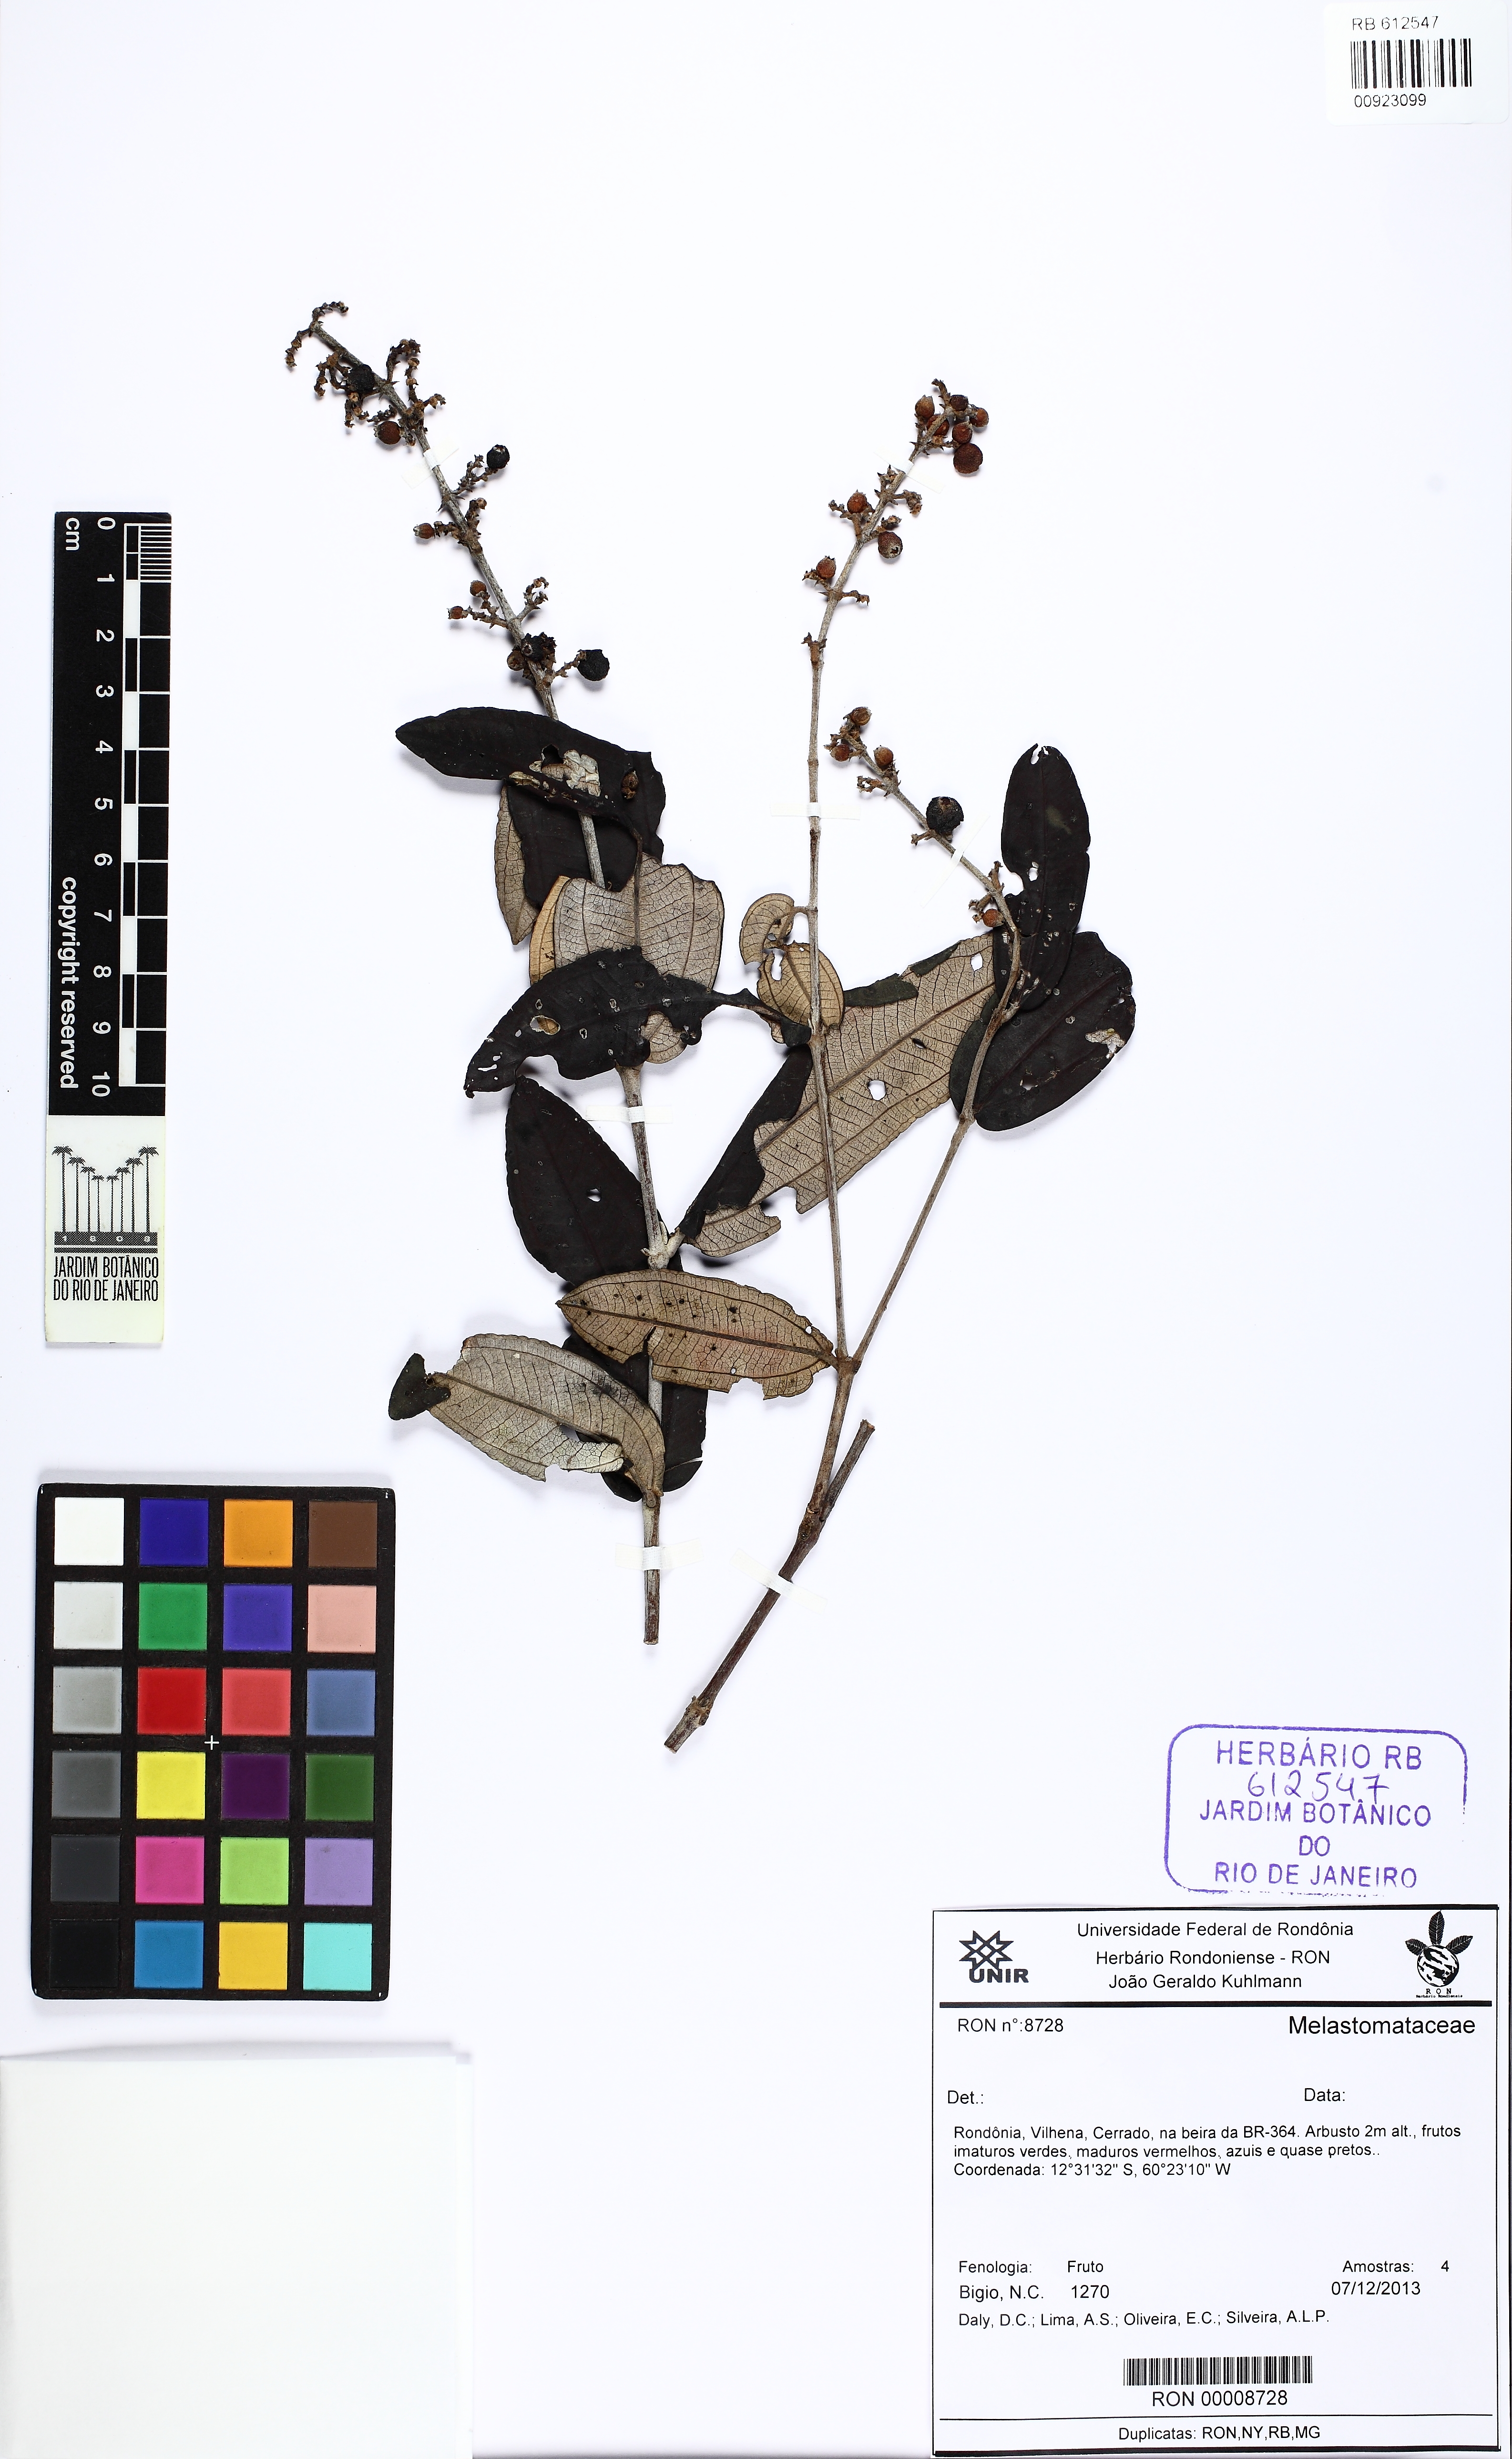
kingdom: Plantae
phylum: Tracheophyta
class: Magnoliopsida
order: Myrtales
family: Melastomataceae
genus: Miconia
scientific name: Miconia fallax
